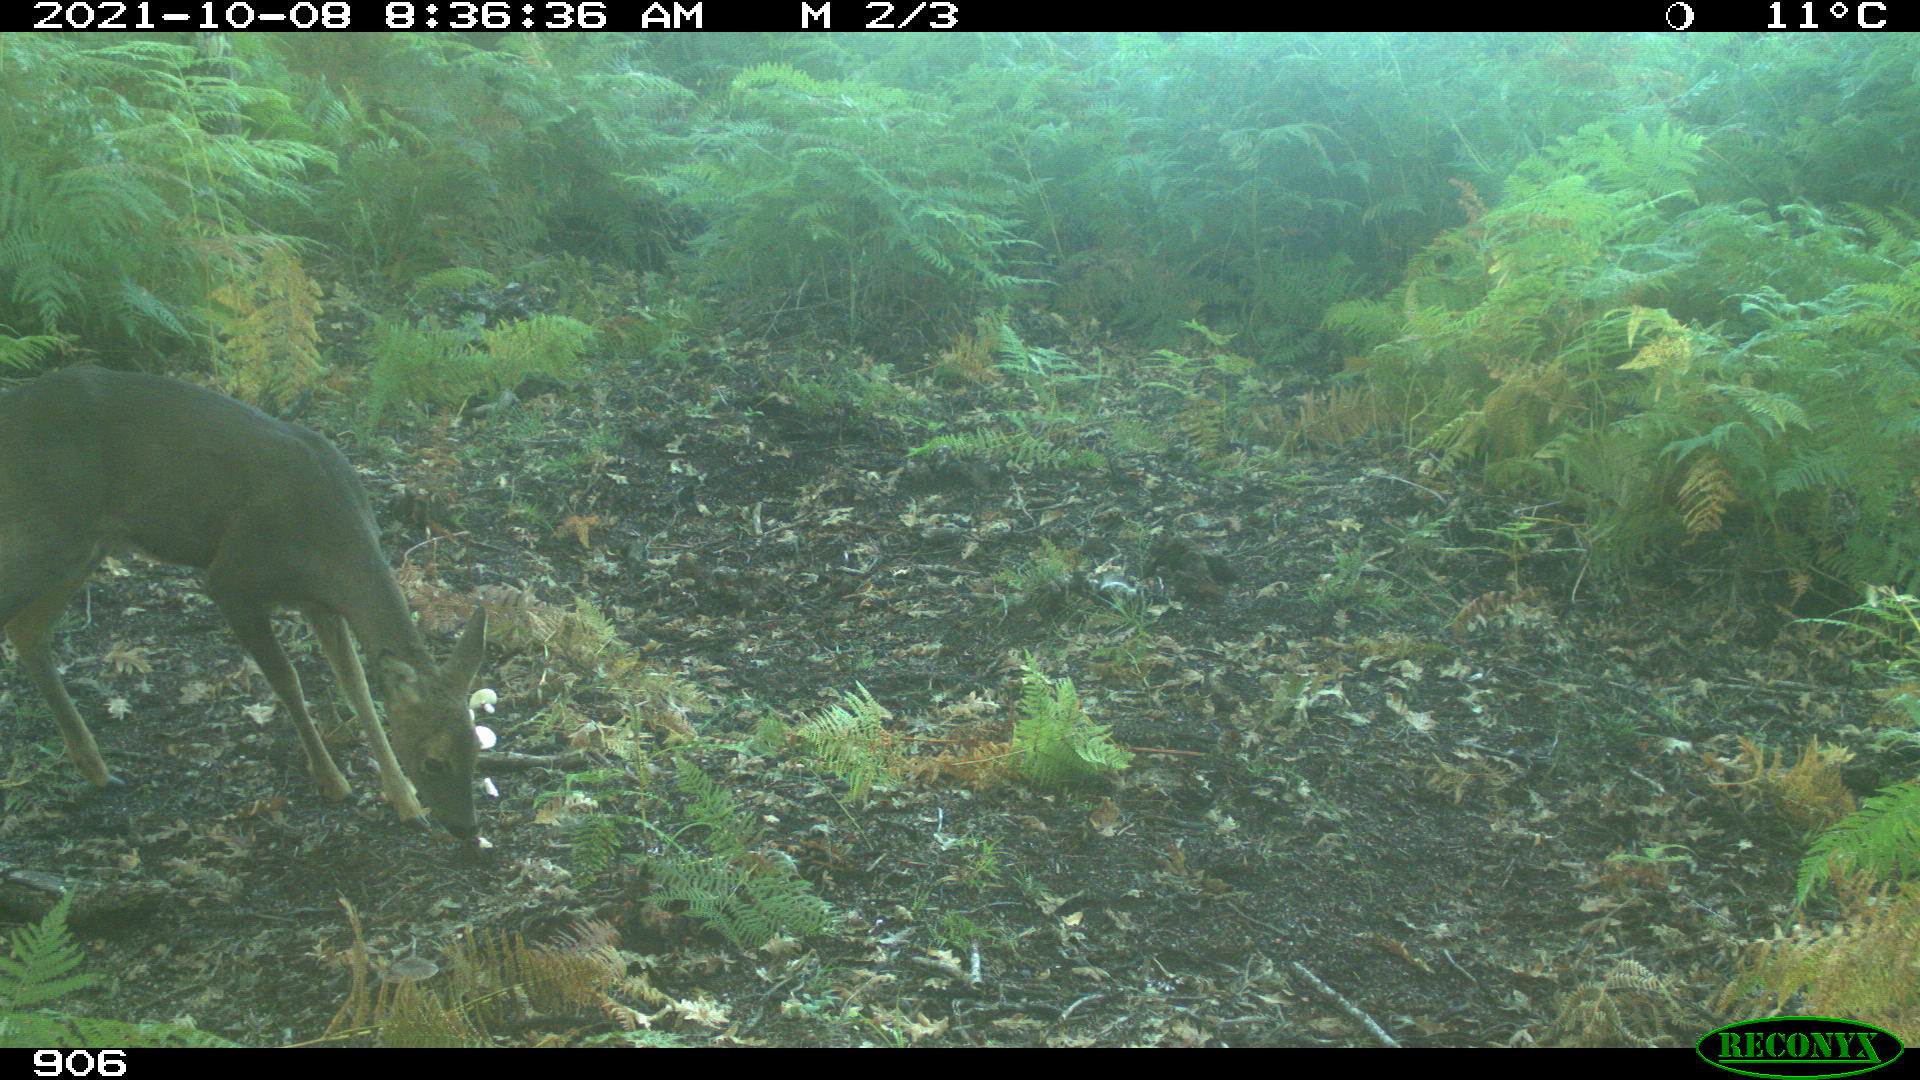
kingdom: Animalia
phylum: Chordata
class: Mammalia
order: Artiodactyla
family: Cervidae
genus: Capreolus
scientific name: Capreolus capreolus
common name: Western roe deer
